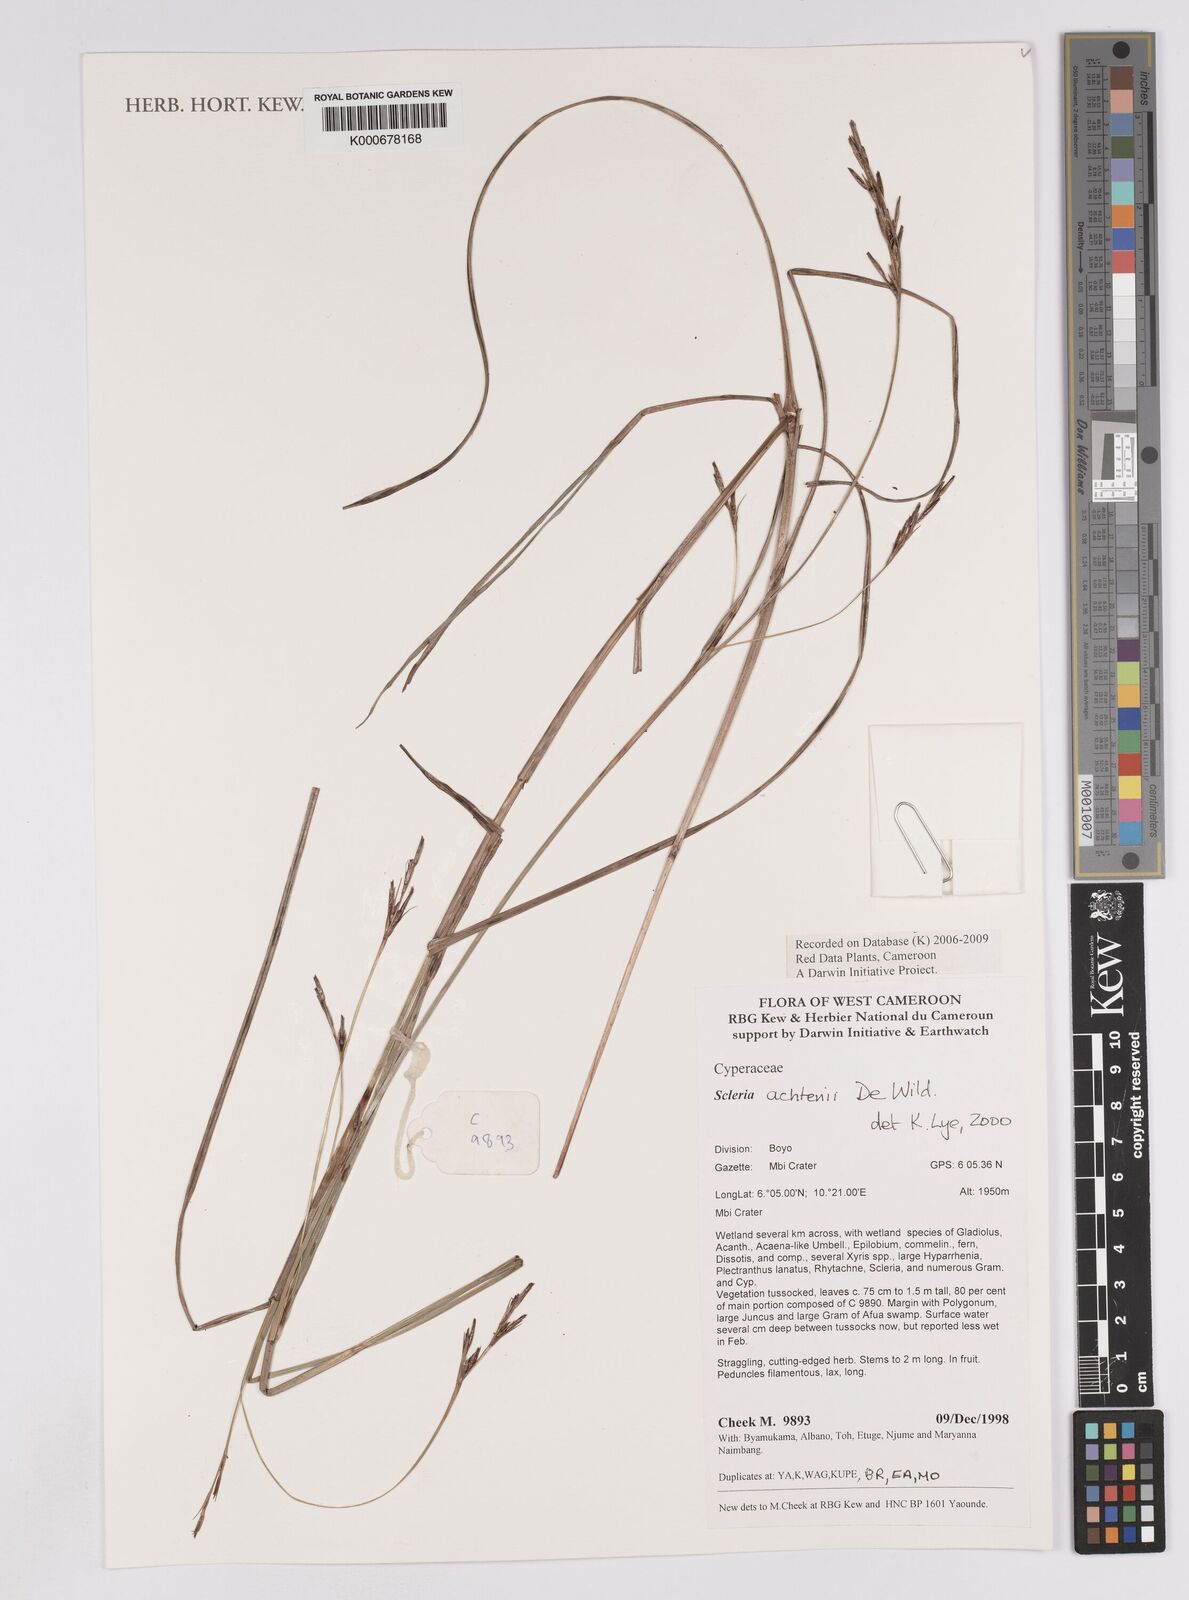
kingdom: Plantae
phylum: Tracheophyta
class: Liliopsida
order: Poales
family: Cyperaceae
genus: Scleria
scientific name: Scleria achtenii
